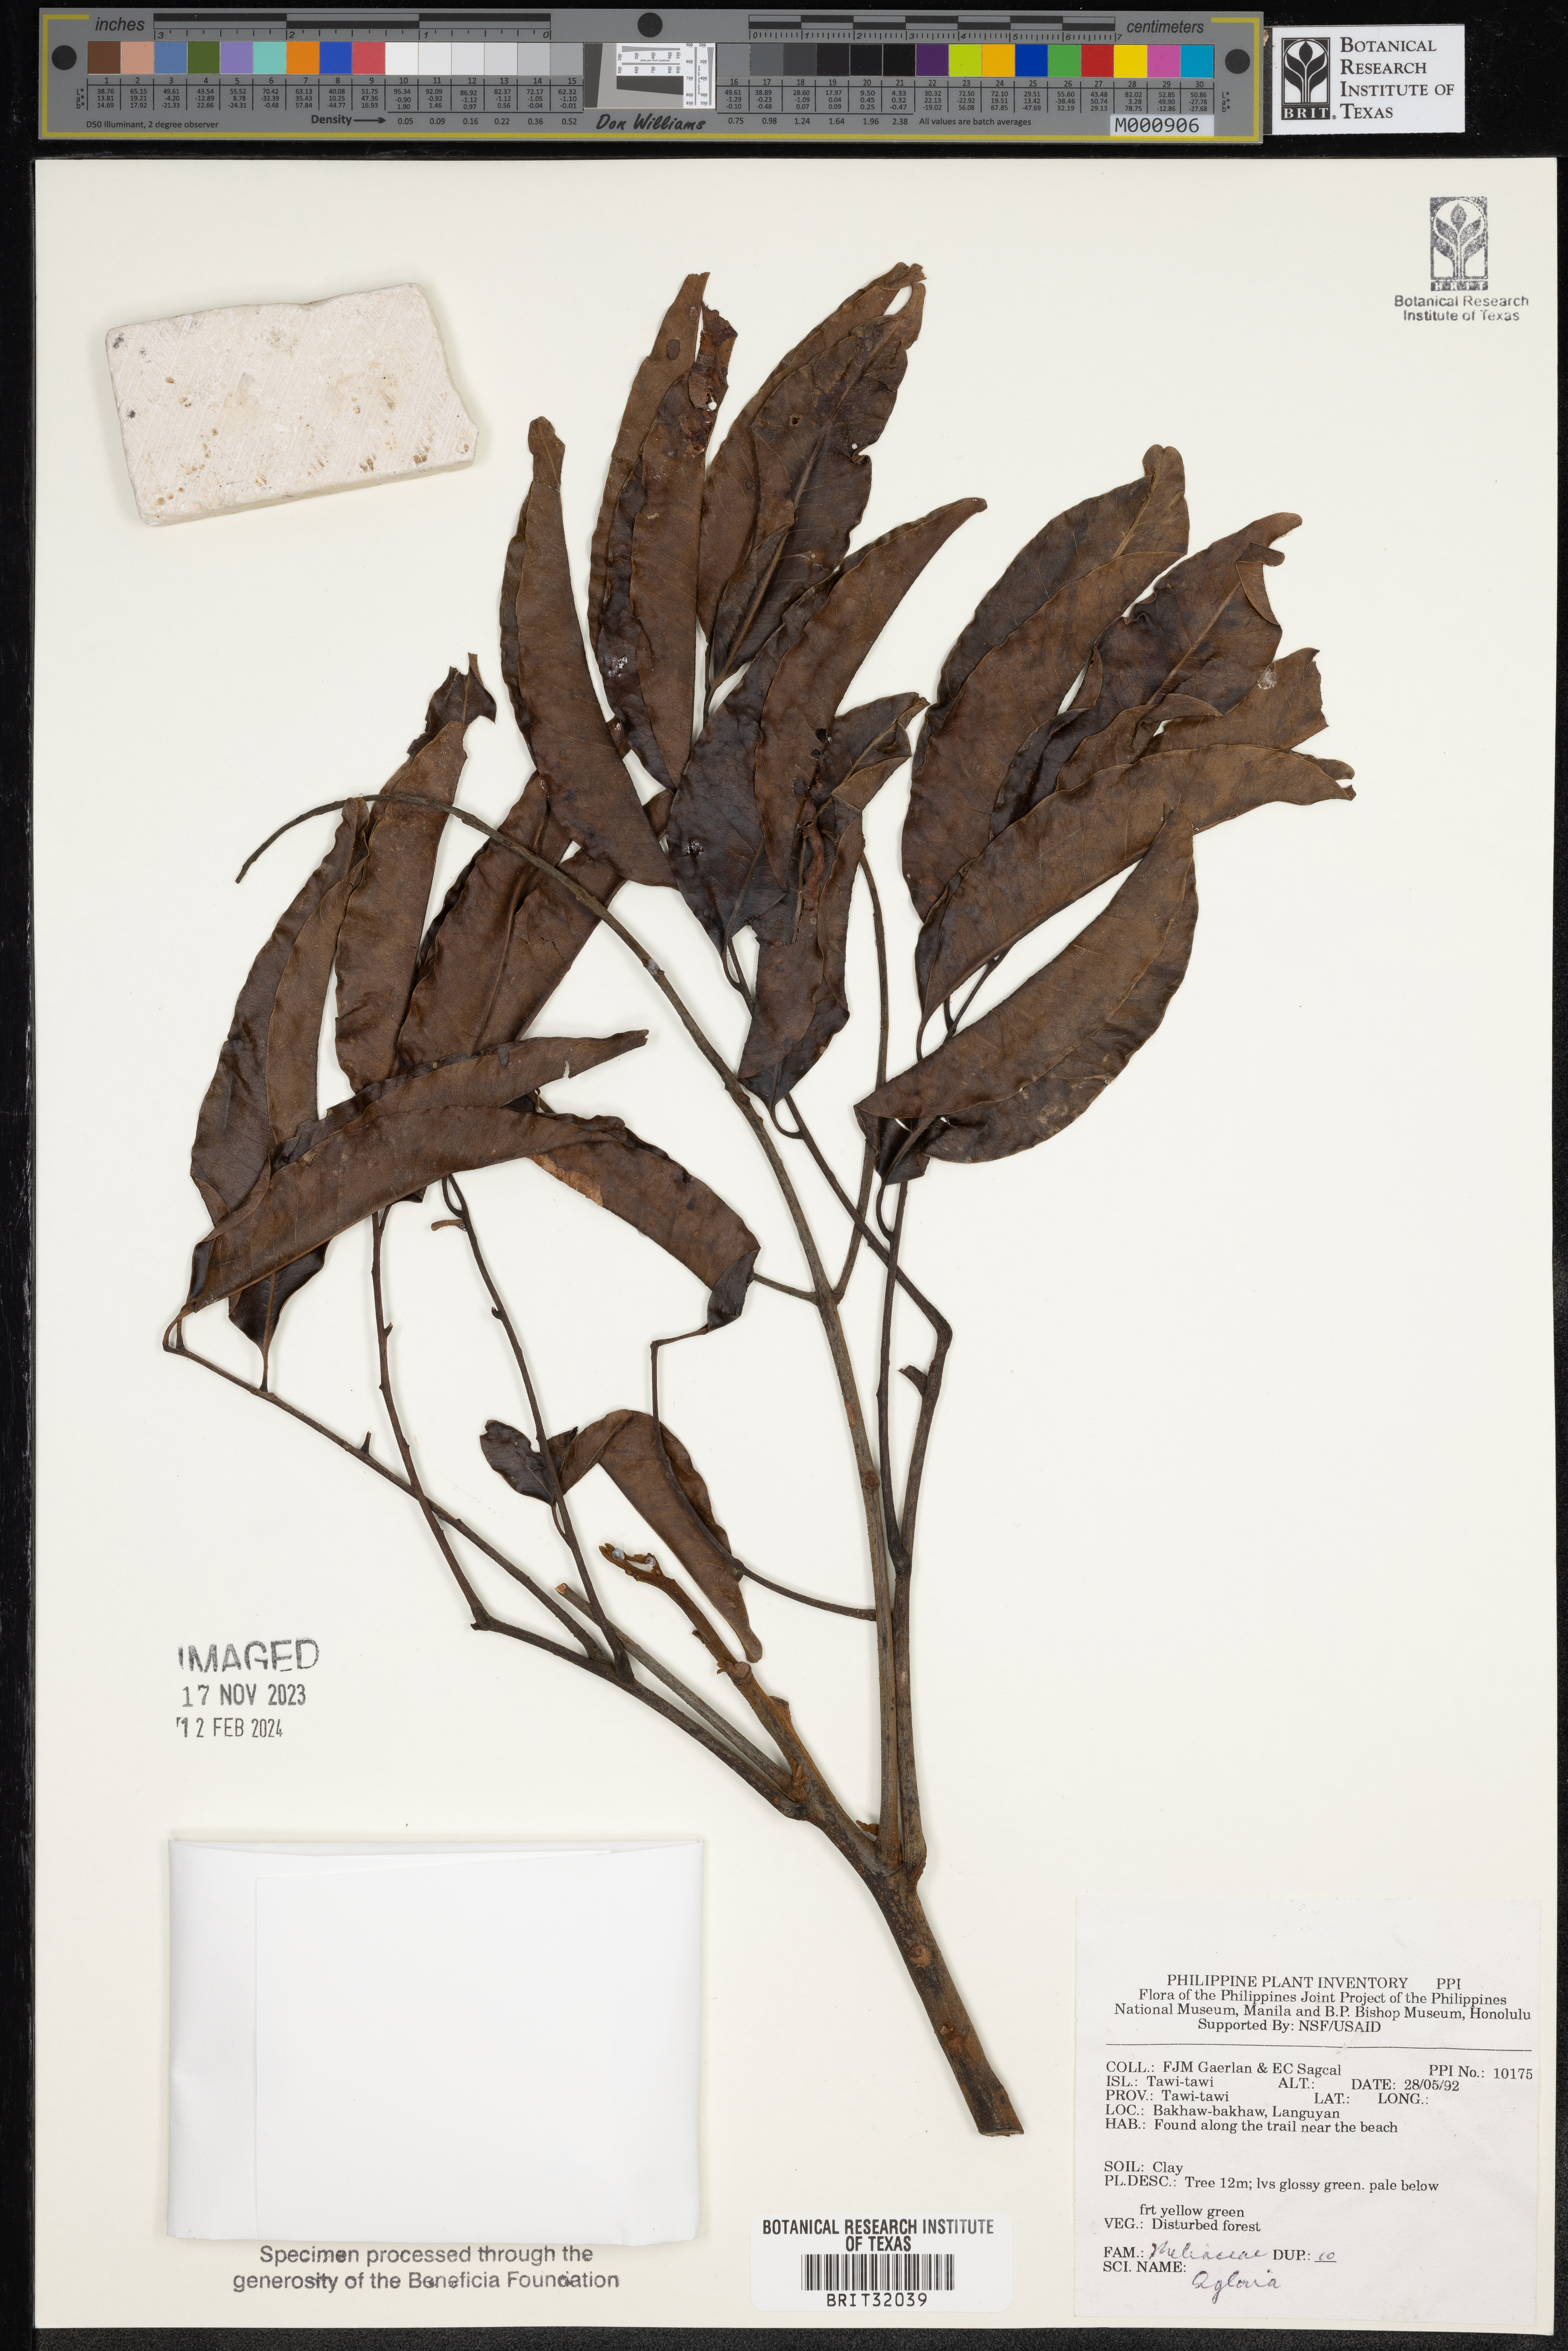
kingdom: Plantae
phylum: Tracheophyta
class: Magnoliopsida
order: Sapindales
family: Meliaceae
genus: Aglaia
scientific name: Aglaia
